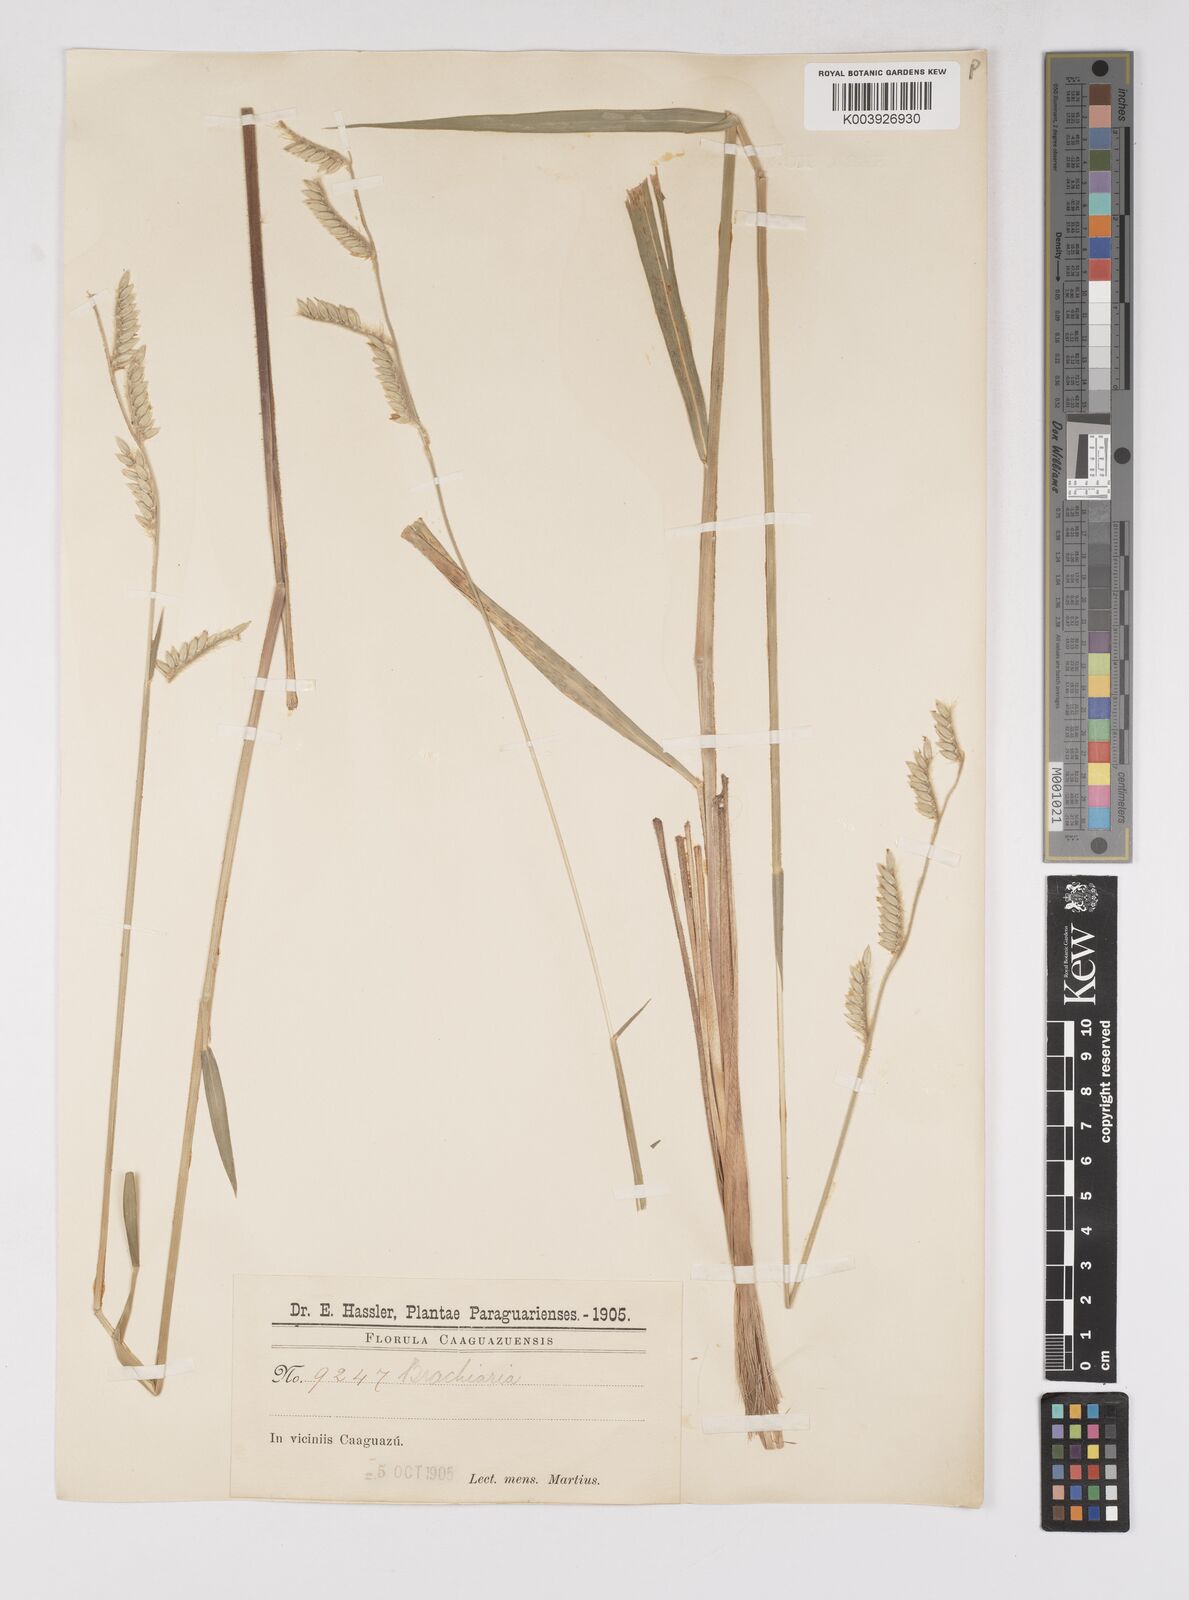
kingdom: Plantae
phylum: Tracheophyta
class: Liliopsida
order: Poales
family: Poaceae
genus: Eriochloa
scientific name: Eriochloa grandiflora
